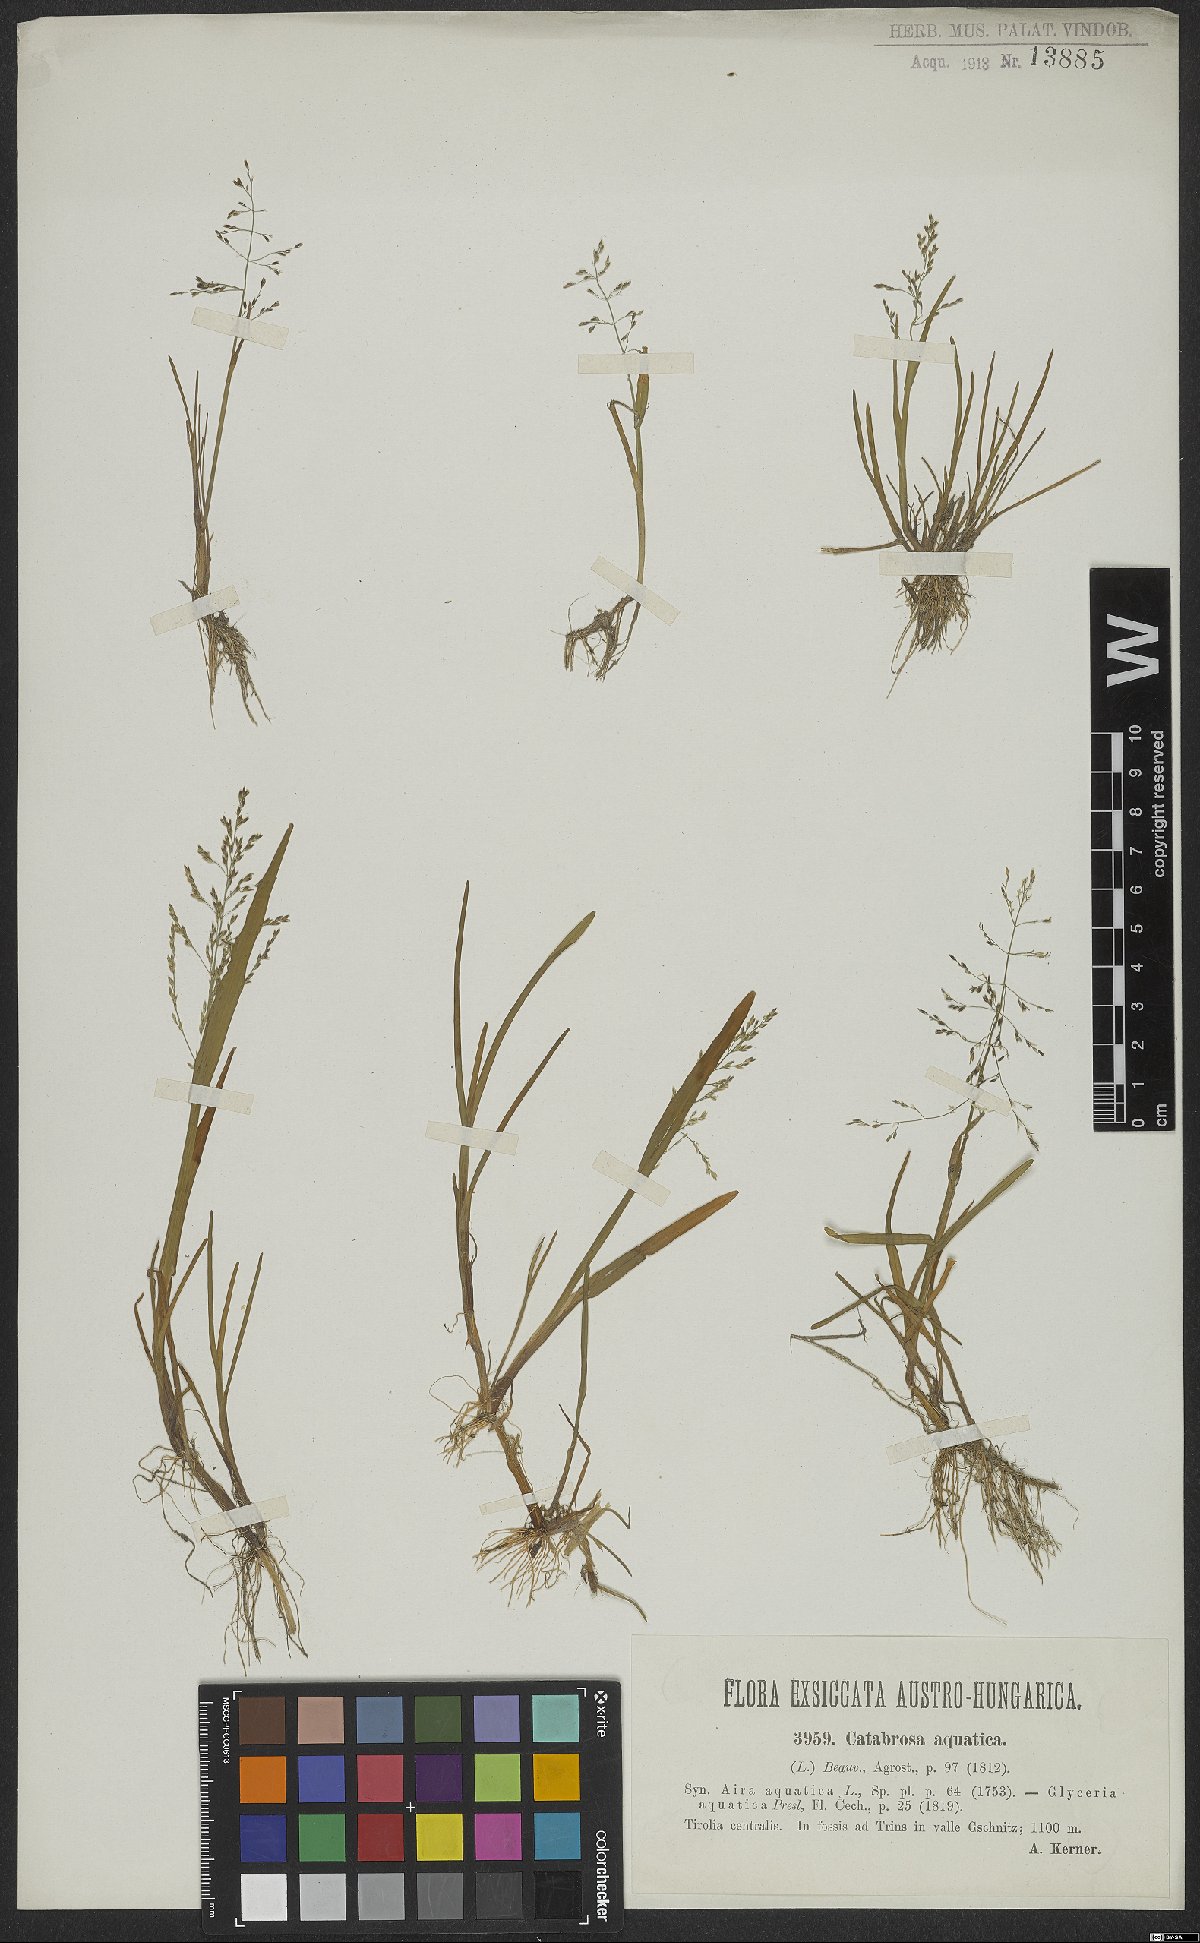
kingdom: Plantae
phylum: Tracheophyta
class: Liliopsida
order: Poales
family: Poaceae
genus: Catabrosa
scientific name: Catabrosa aquatica
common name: Whorl-grass
